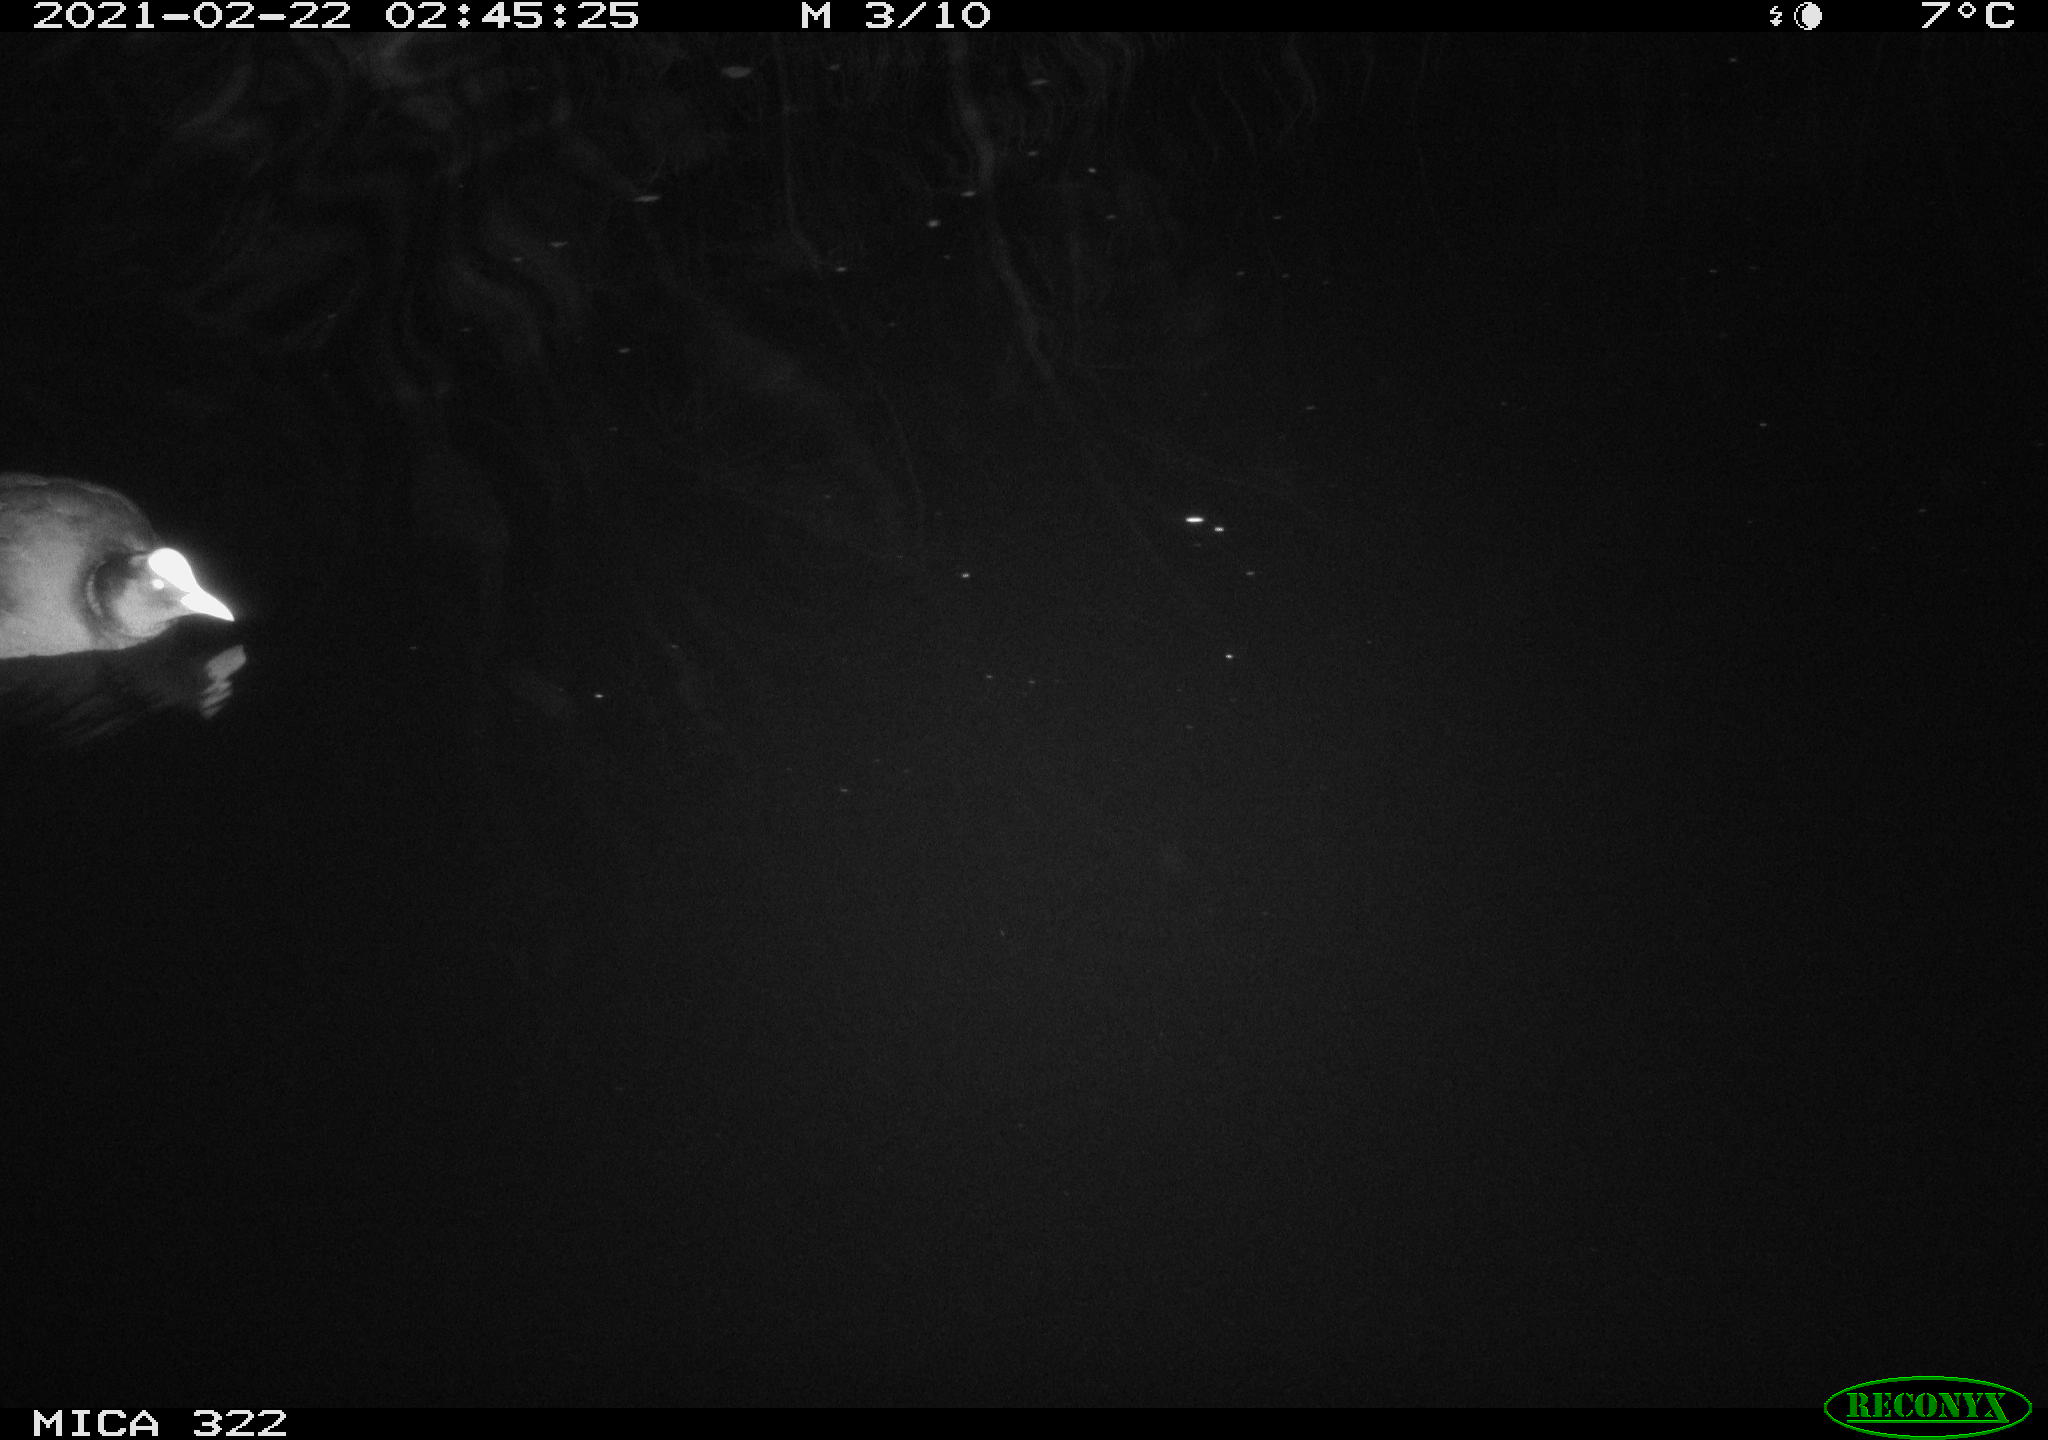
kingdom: Animalia
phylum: Chordata
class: Aves
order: Gruiformes
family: Rallidae
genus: Fulica
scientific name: Fulica atra
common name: Eurasian coot
